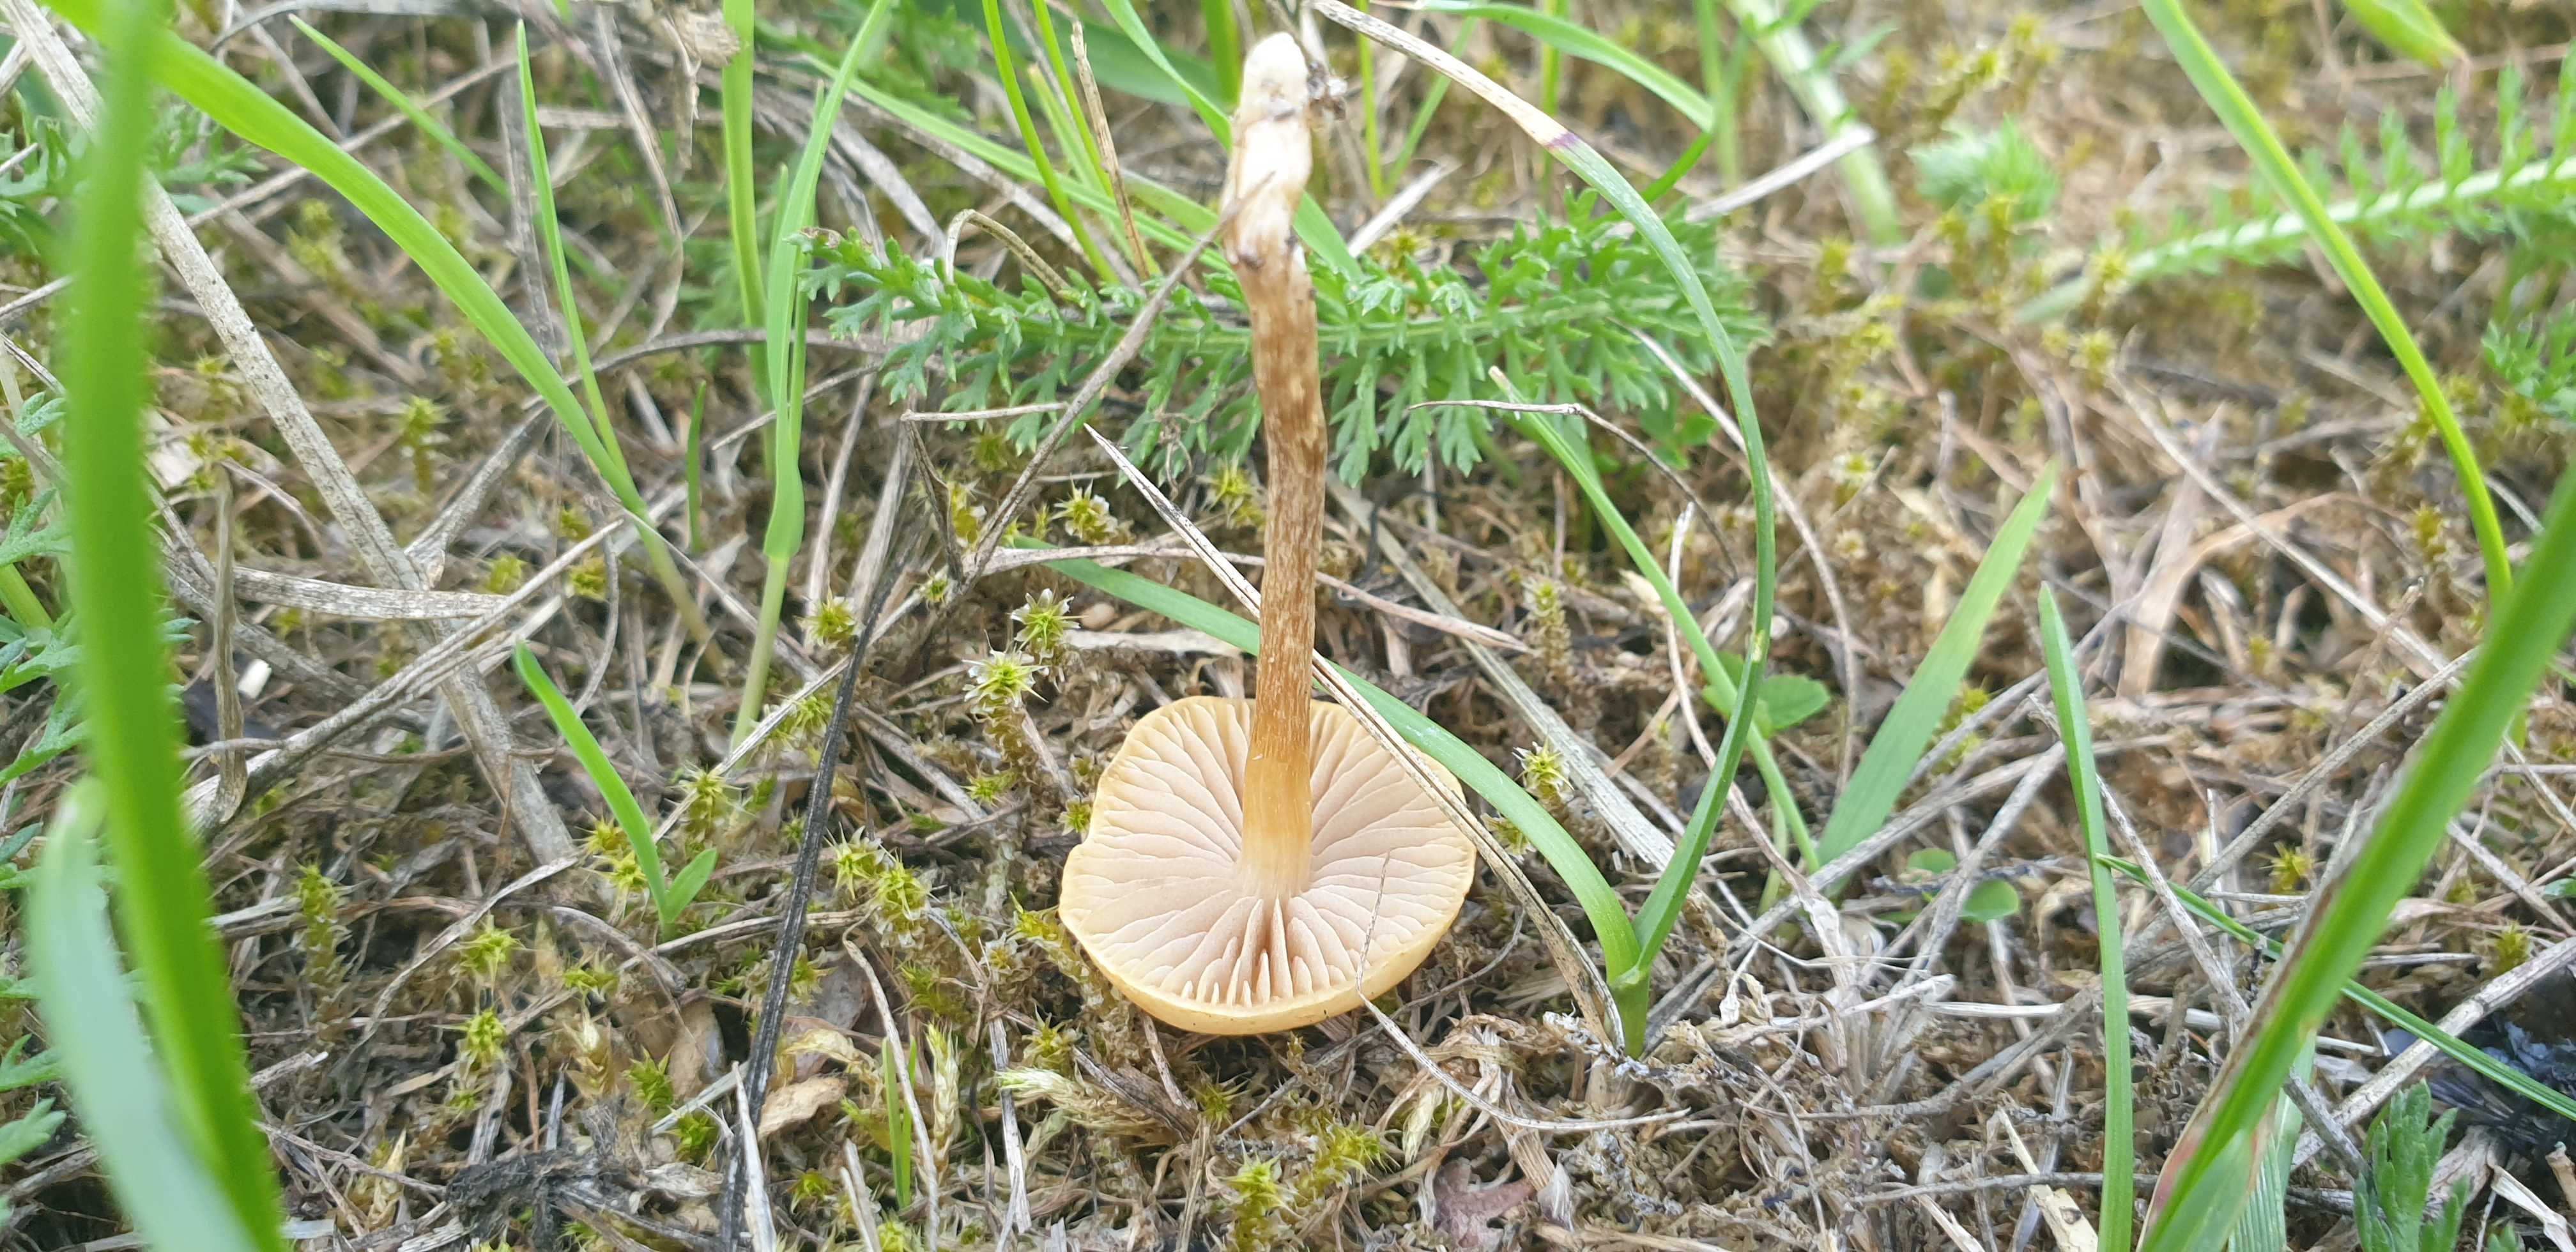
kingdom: Fungi
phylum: Basidiomycota
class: Agaricomycetes
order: Agaricales
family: Strophariaceae
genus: Agrocybe
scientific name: Agrocybe pediades
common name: almindelig agerhat
